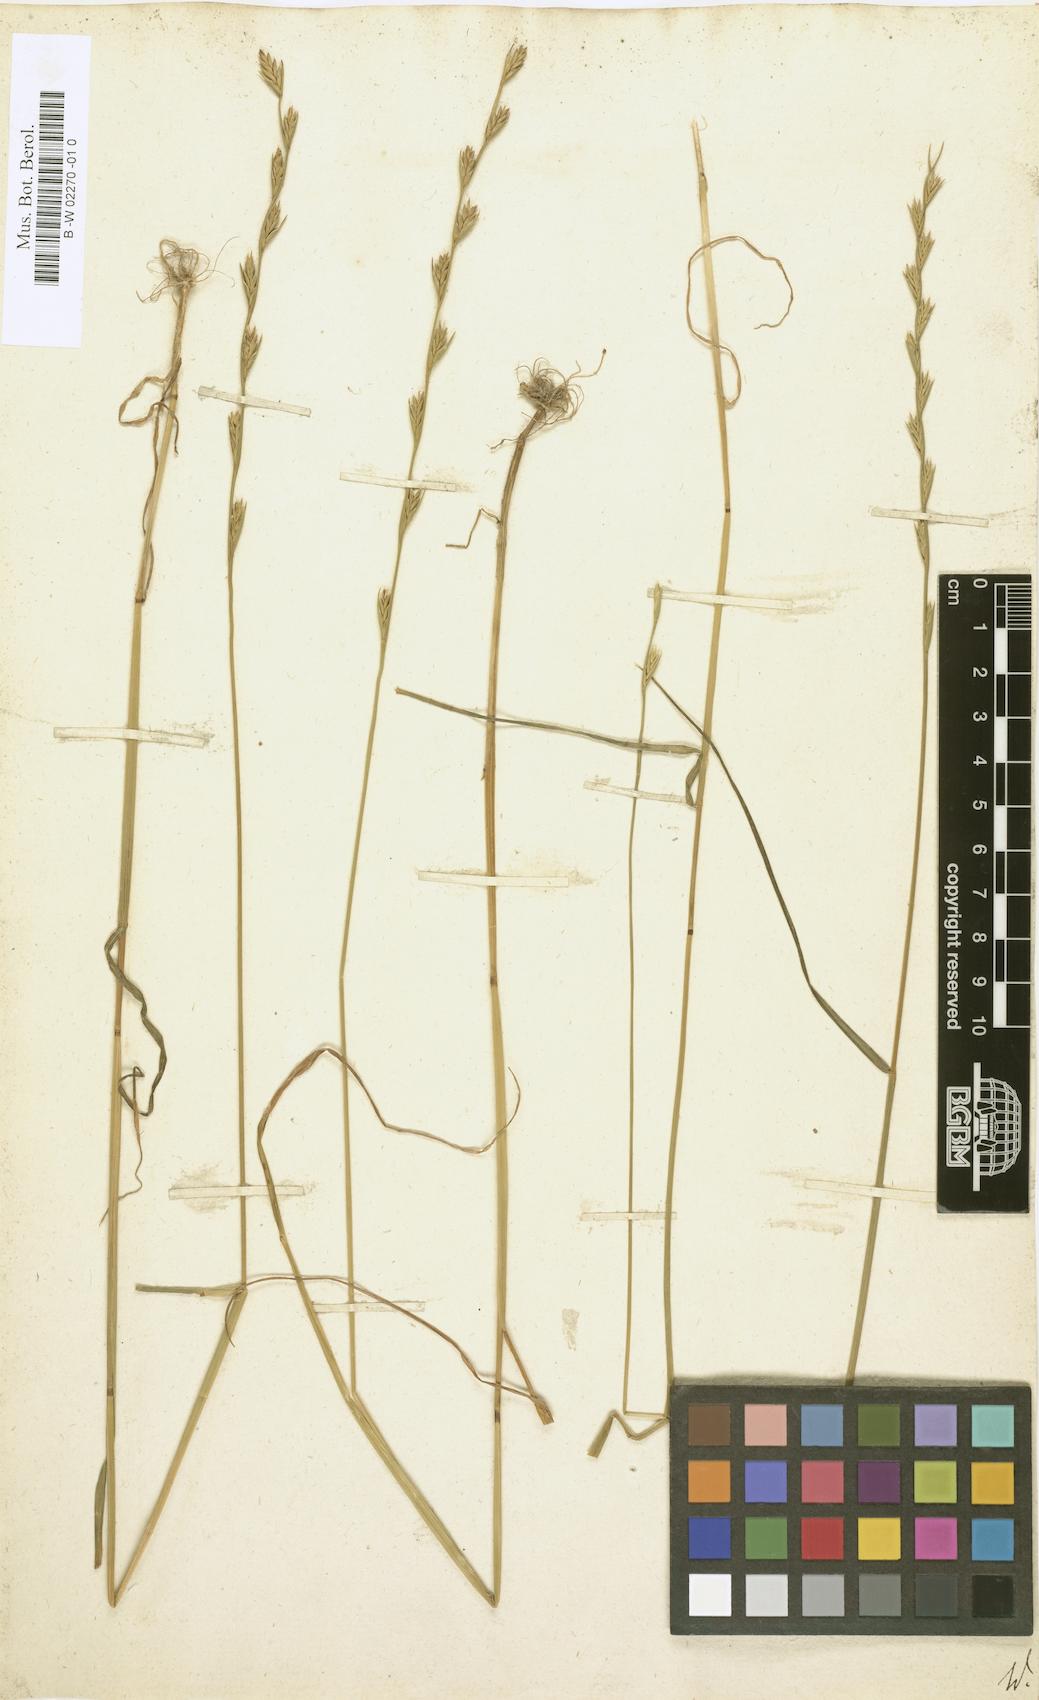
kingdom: Plantae
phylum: Tracheophyta
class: Liliopsida
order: Poales
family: Poaceae
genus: Lolium
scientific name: Lolium temulentum
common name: Darnel
